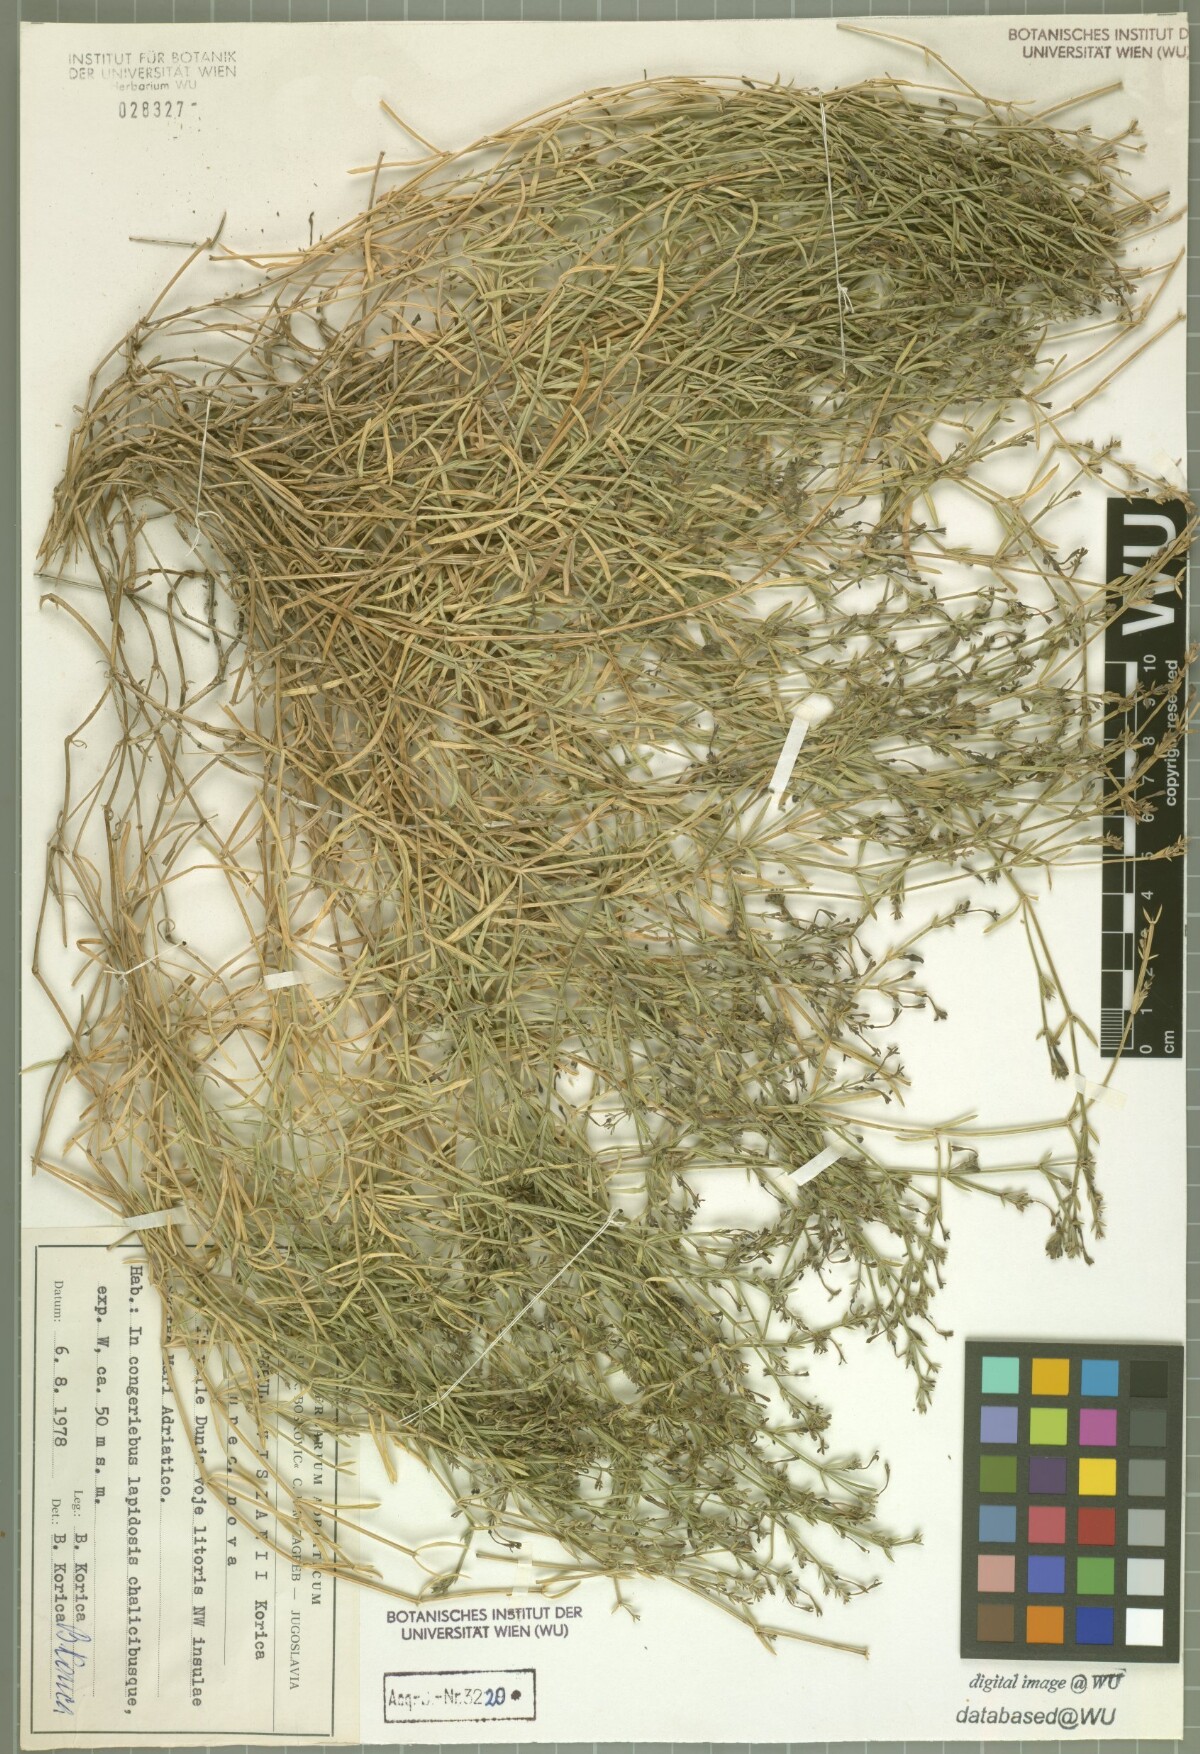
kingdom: Plantae
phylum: Tracheophyta
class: Magnoliopsida
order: Gentianales
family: Rubiaceae
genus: Cynanchica
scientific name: Cynanchica visianii
